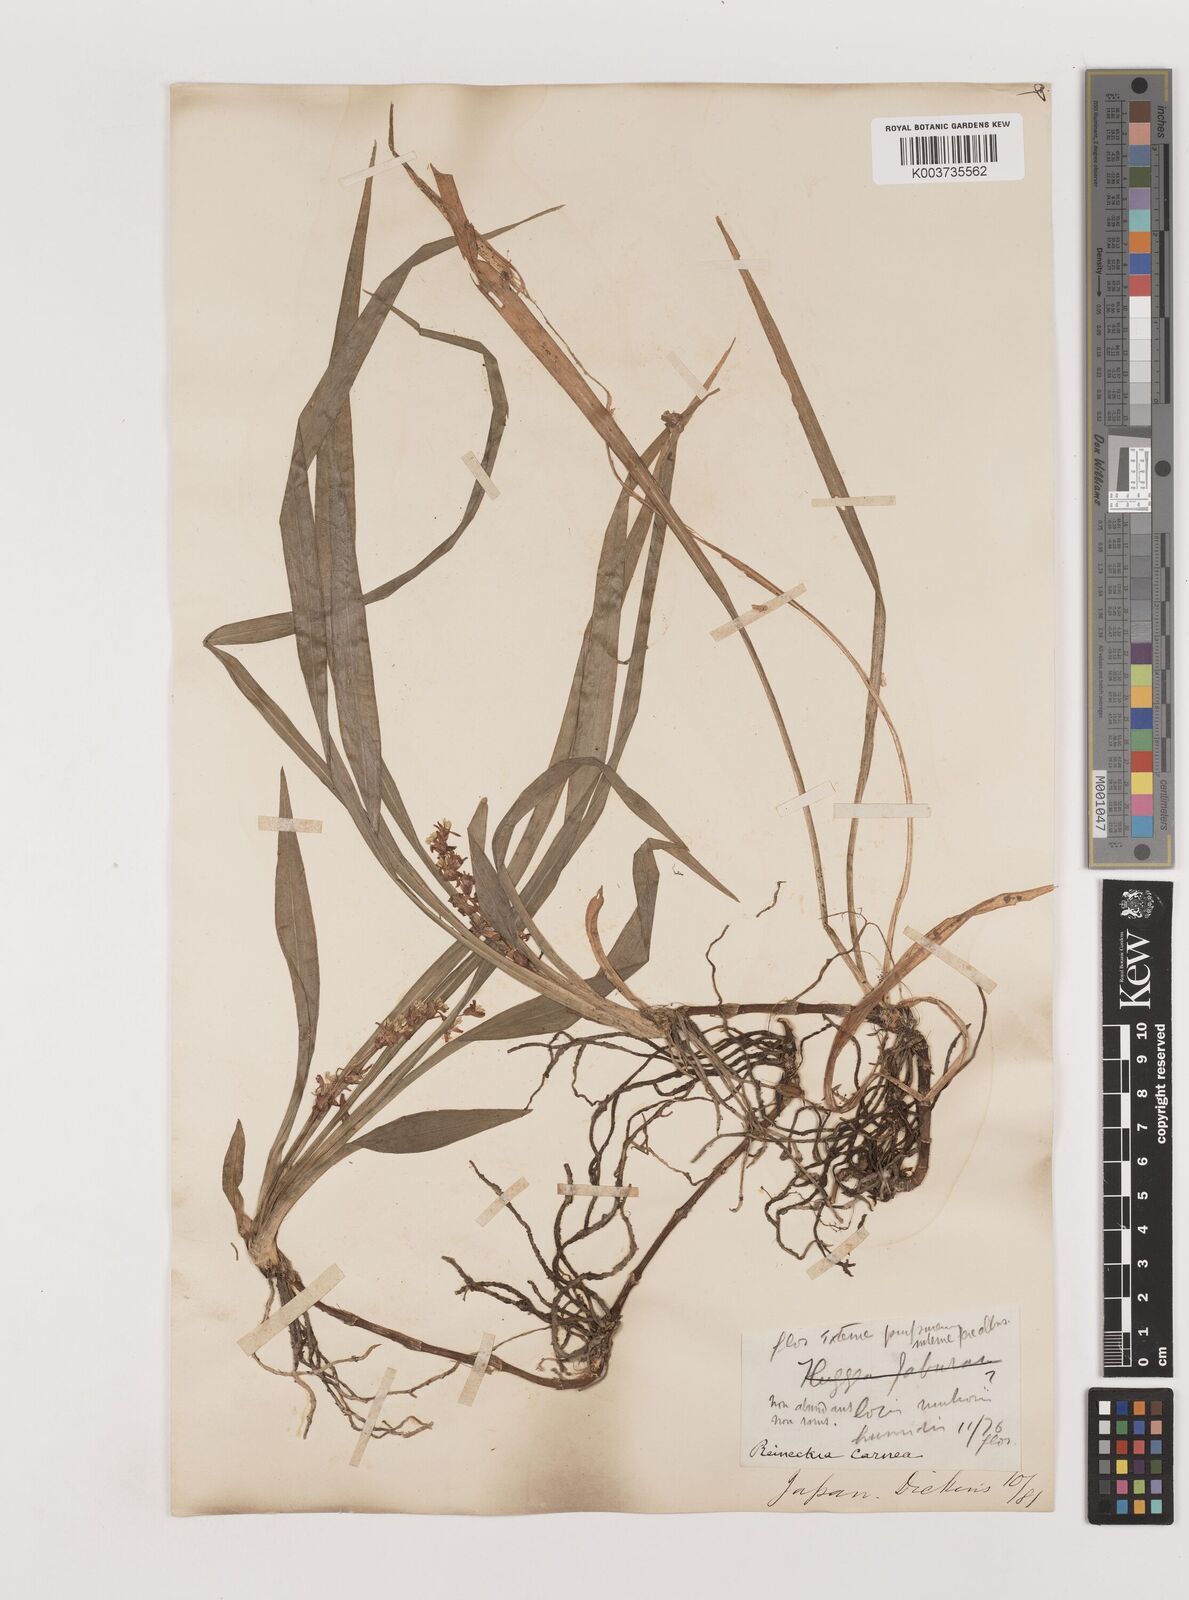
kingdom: Plantae
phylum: Tracheophyta
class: Liliopsida
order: Asparagales
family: Asparagaceae
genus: Reineckea
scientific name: Reineckea carnea
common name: Reineckea
